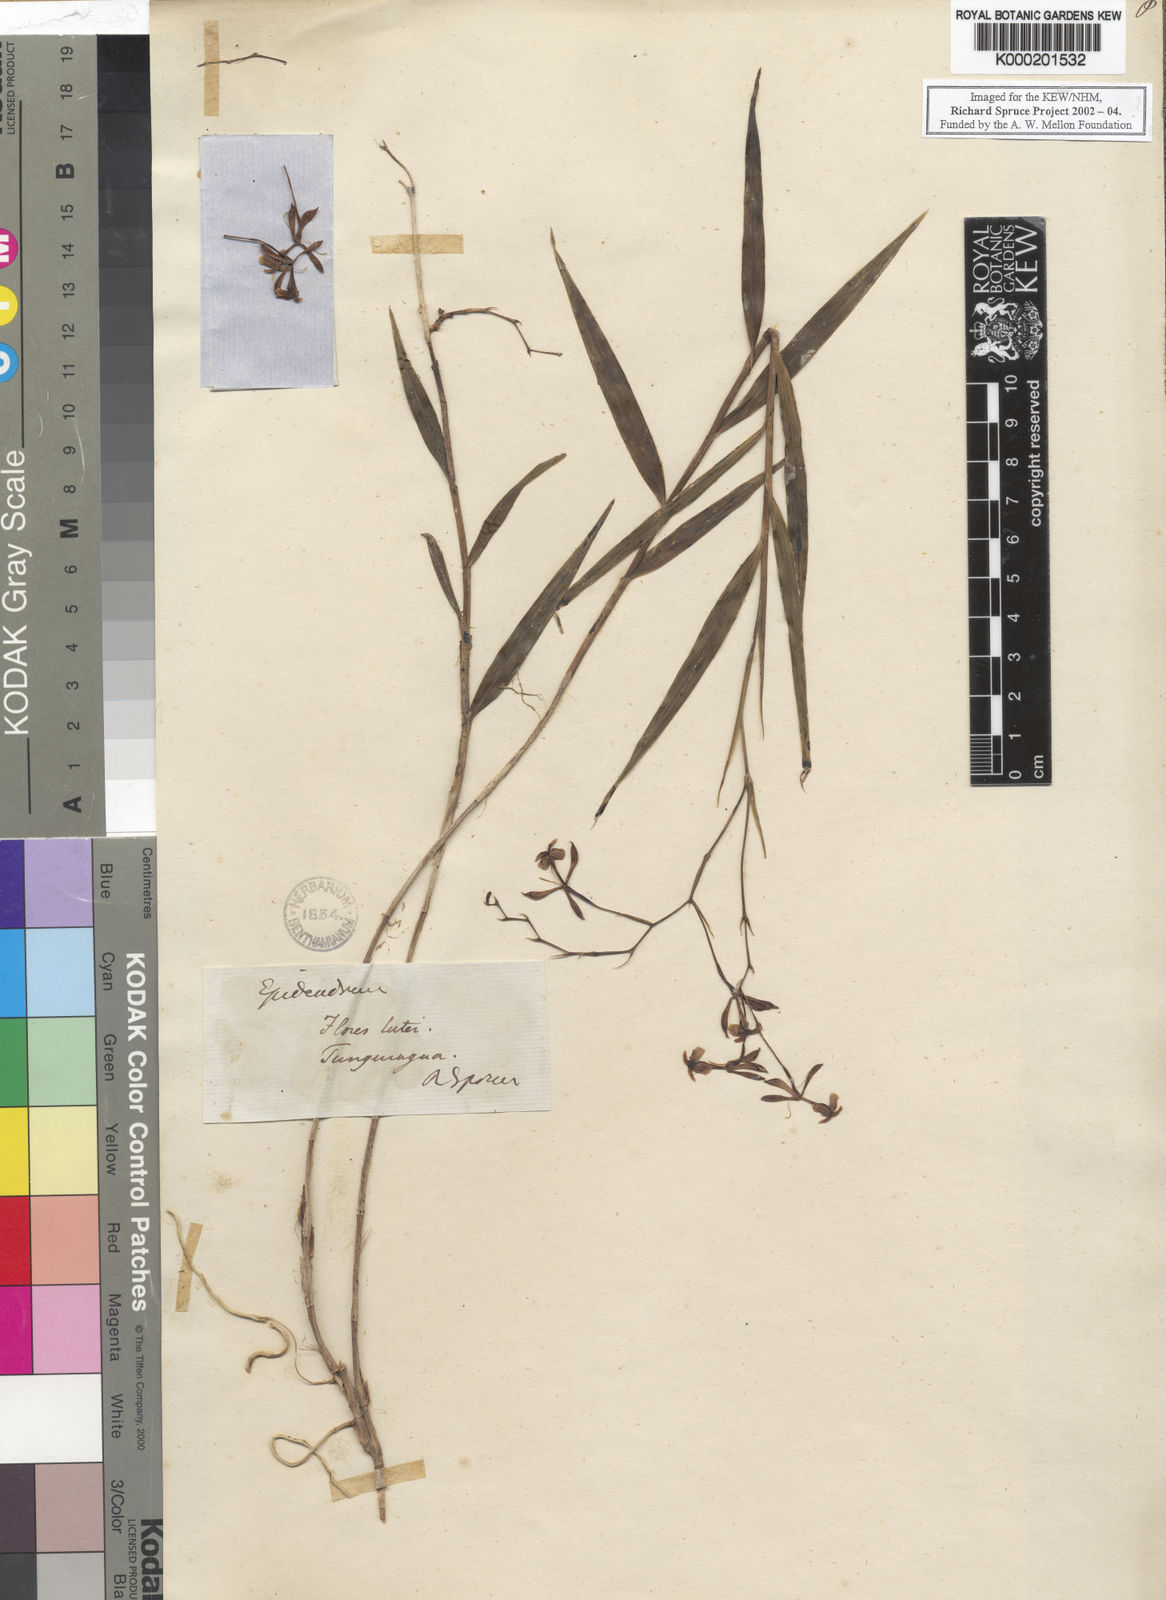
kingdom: Plantae
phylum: Tracheophyta
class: Liliopsida
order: Asparagales
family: Orchidaceae
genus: Epidendrum
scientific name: Epidendrum englerianum
